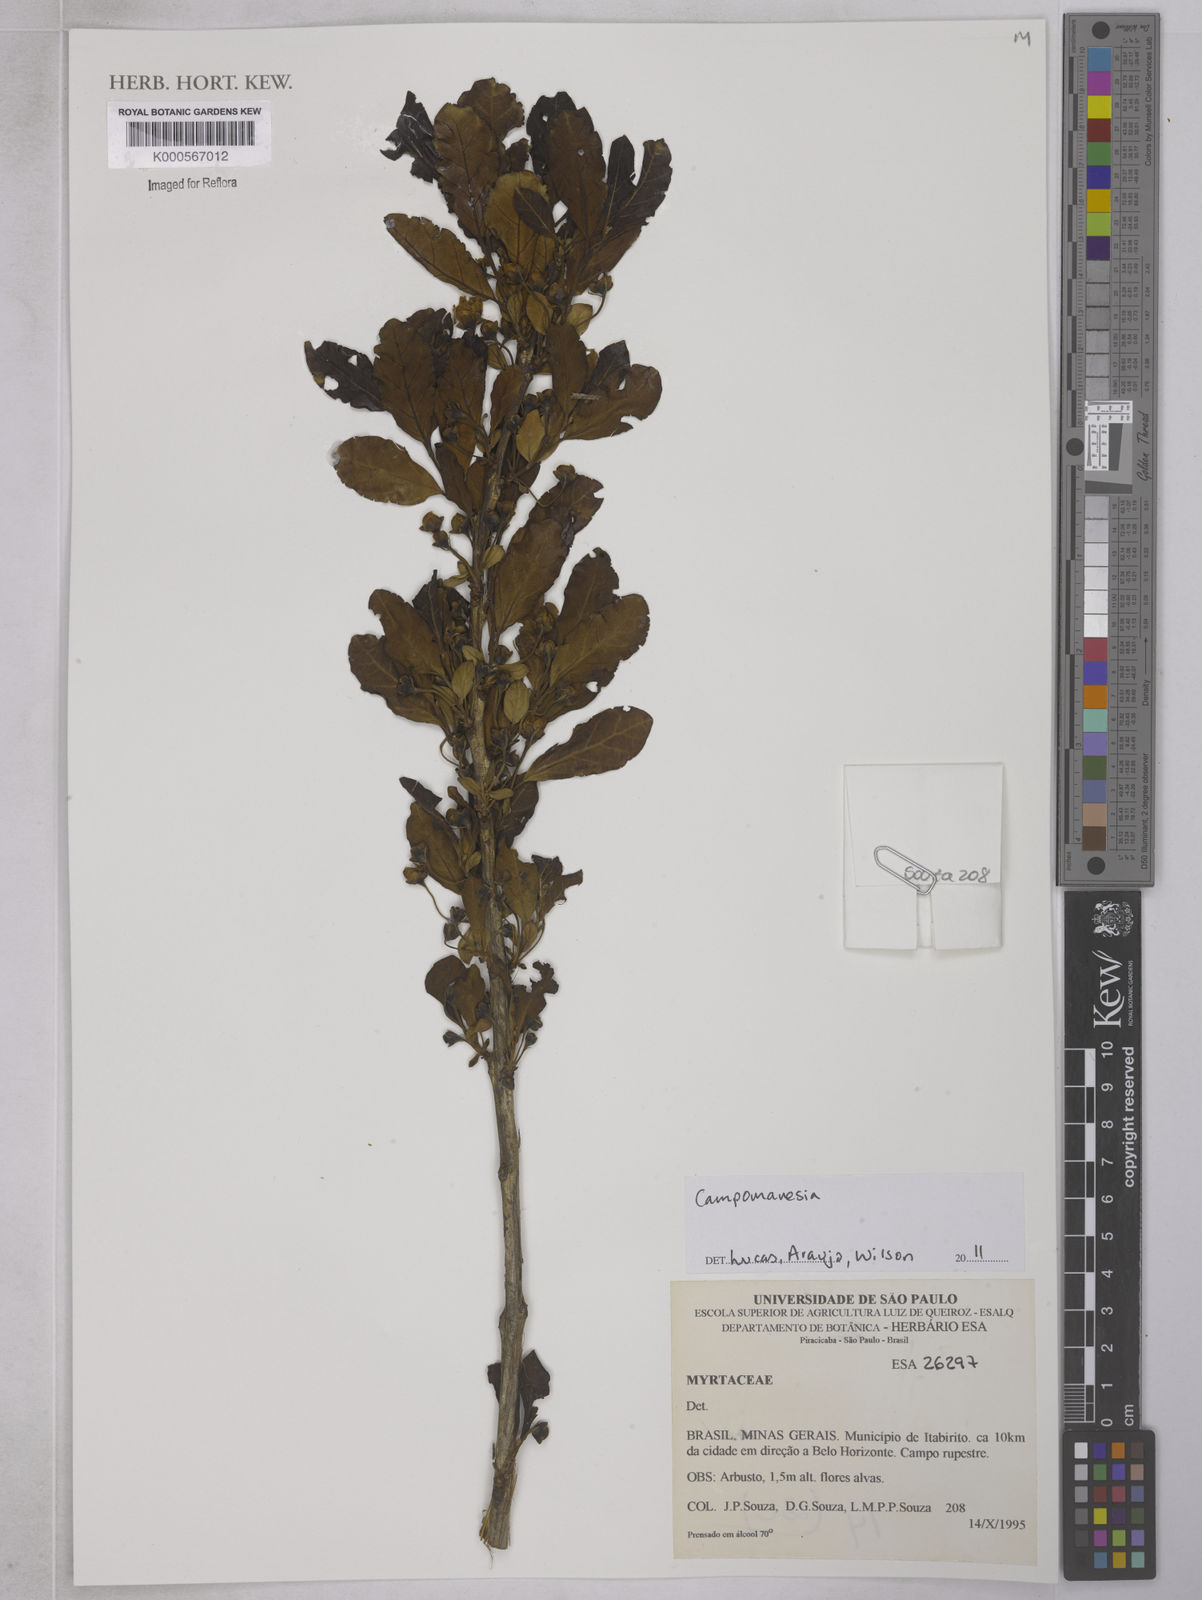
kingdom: Plantae
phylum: Tracheophyta
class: Magnoliopsida
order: Myrtales
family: Myrtaceae
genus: Campomanesia
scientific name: Campomanesia
